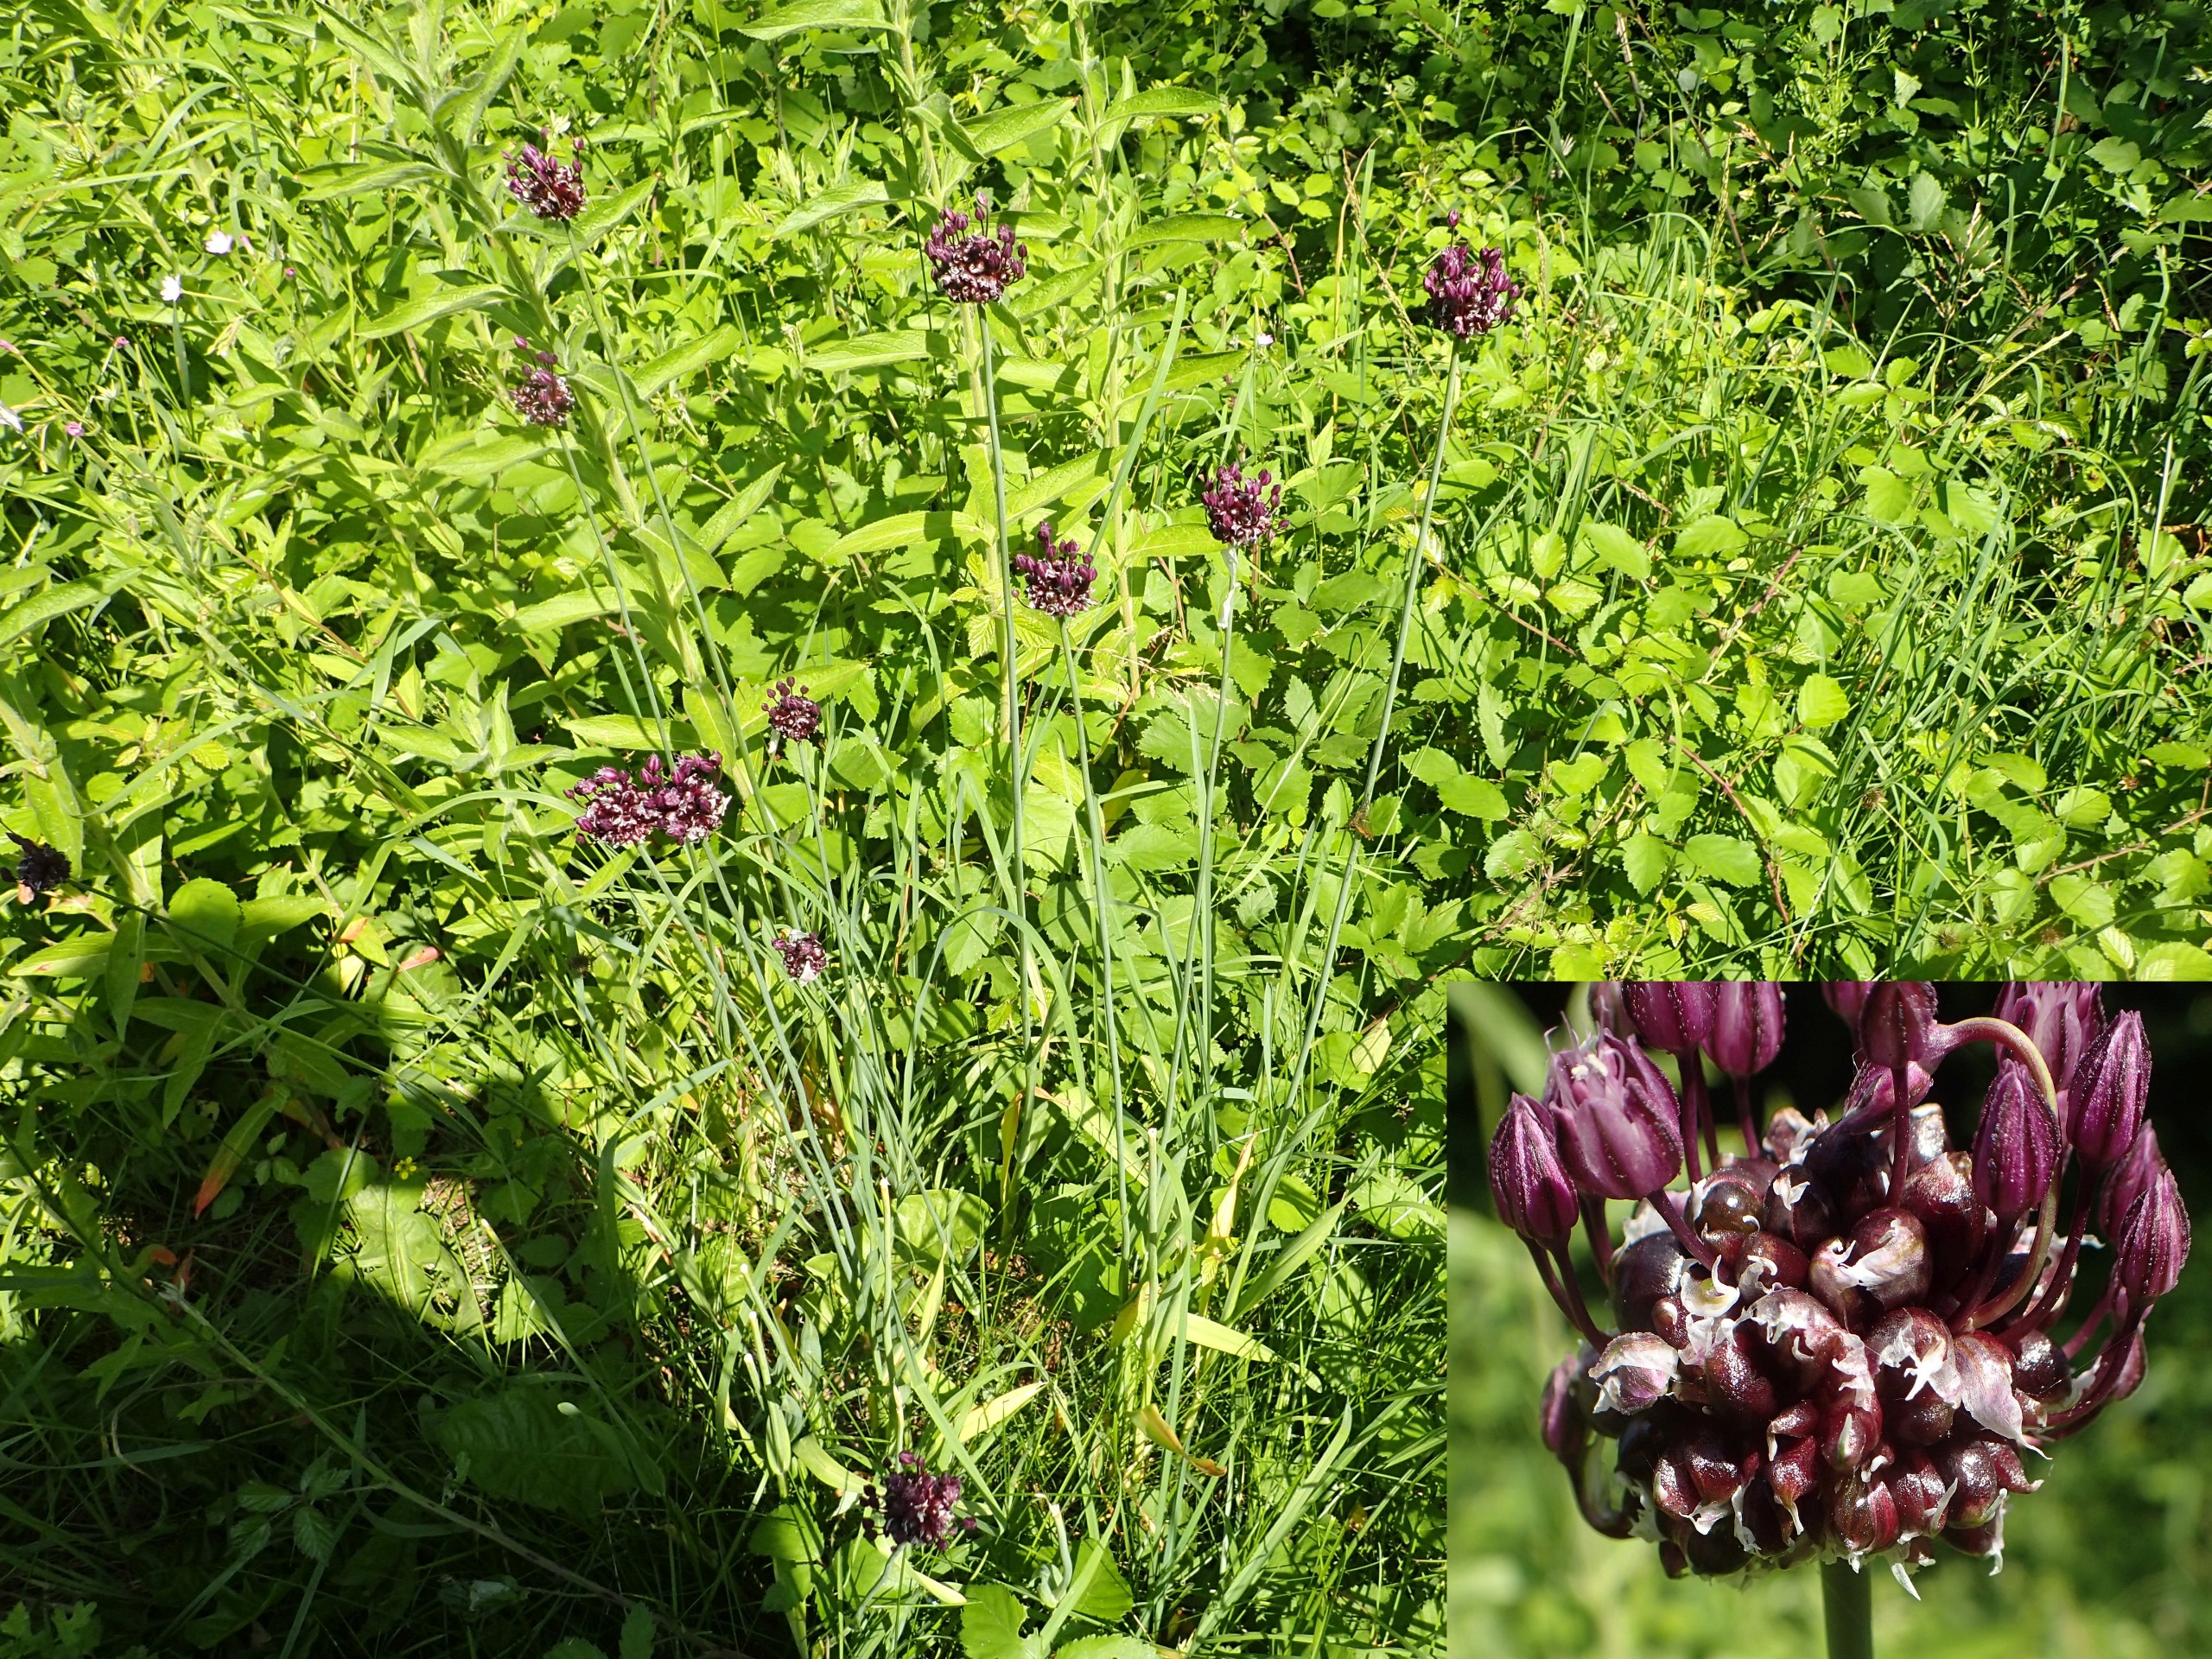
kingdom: Plantae
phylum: Tracheophyta
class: Liliopsida
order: Asparagales
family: Amaryllidaceae
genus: Allium
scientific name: Allium scorodoprasum
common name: Skov-løg
